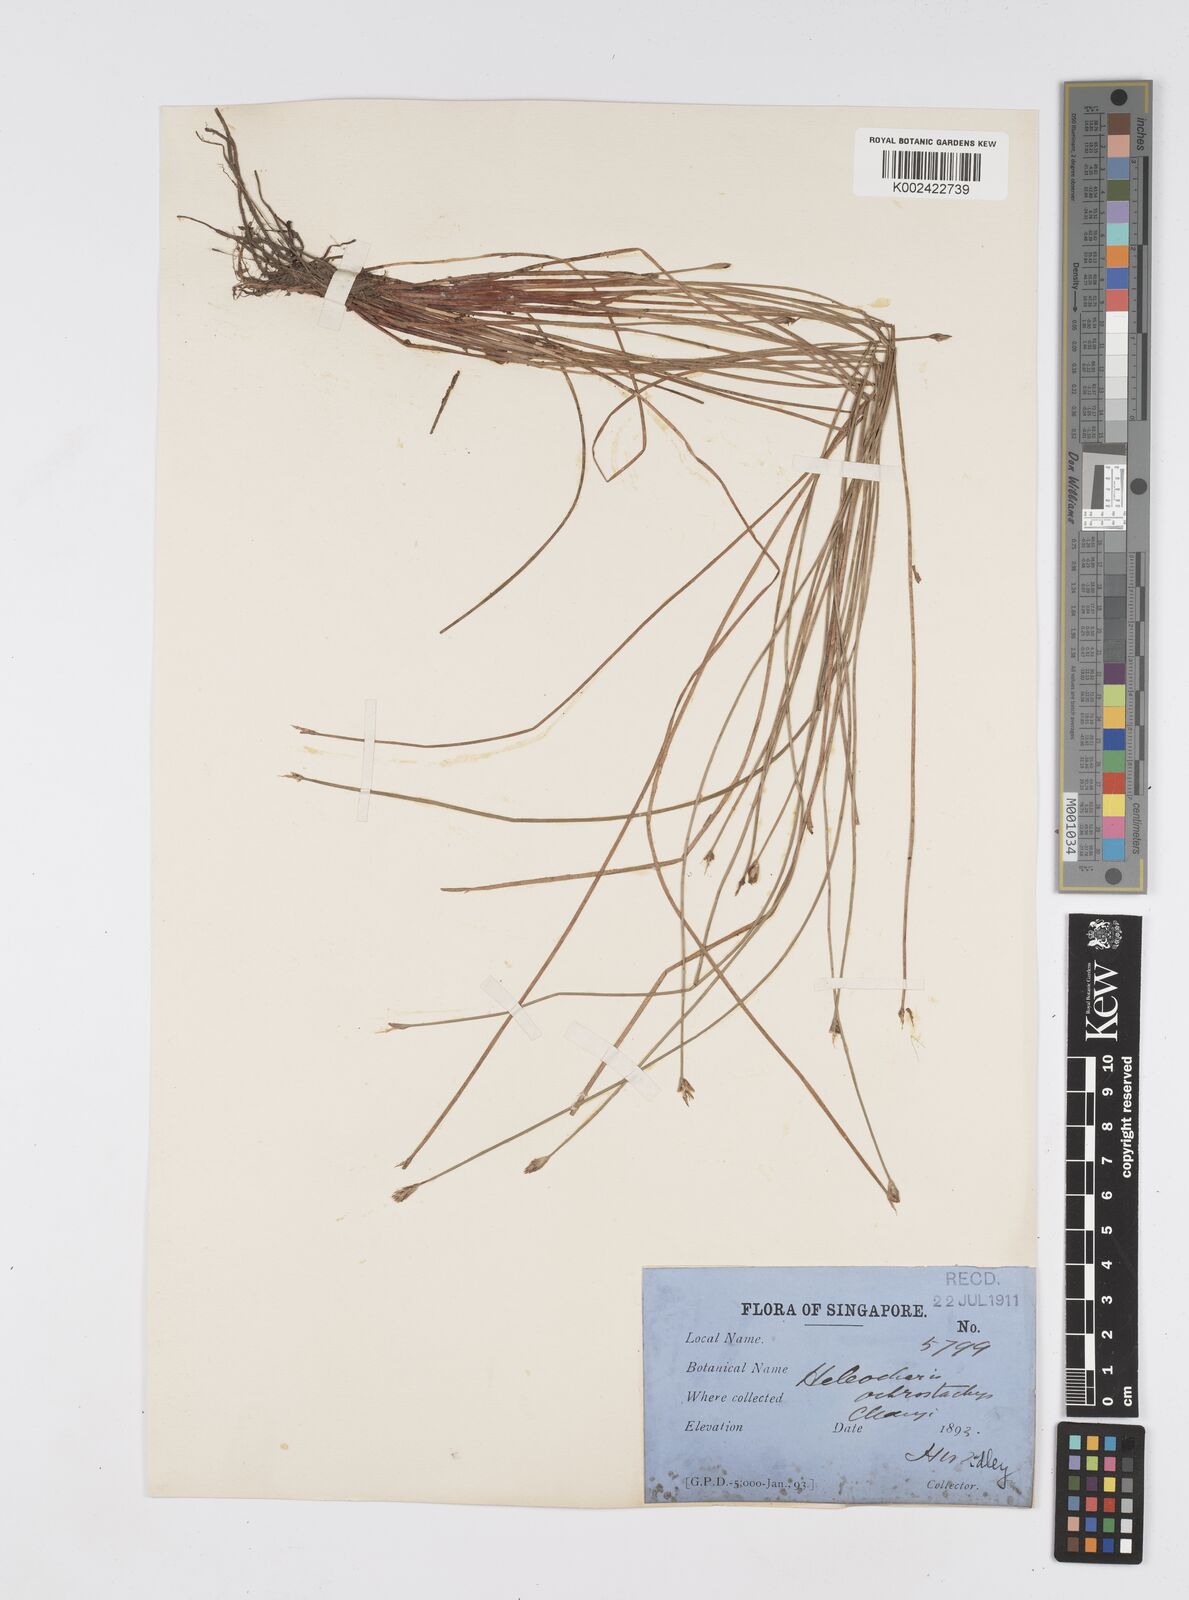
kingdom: Plantae
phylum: Tracheophyta
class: Liliopsida
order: Poales
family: Cyperaceae
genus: Eleocharis
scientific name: Eleocharis ochrostachys
